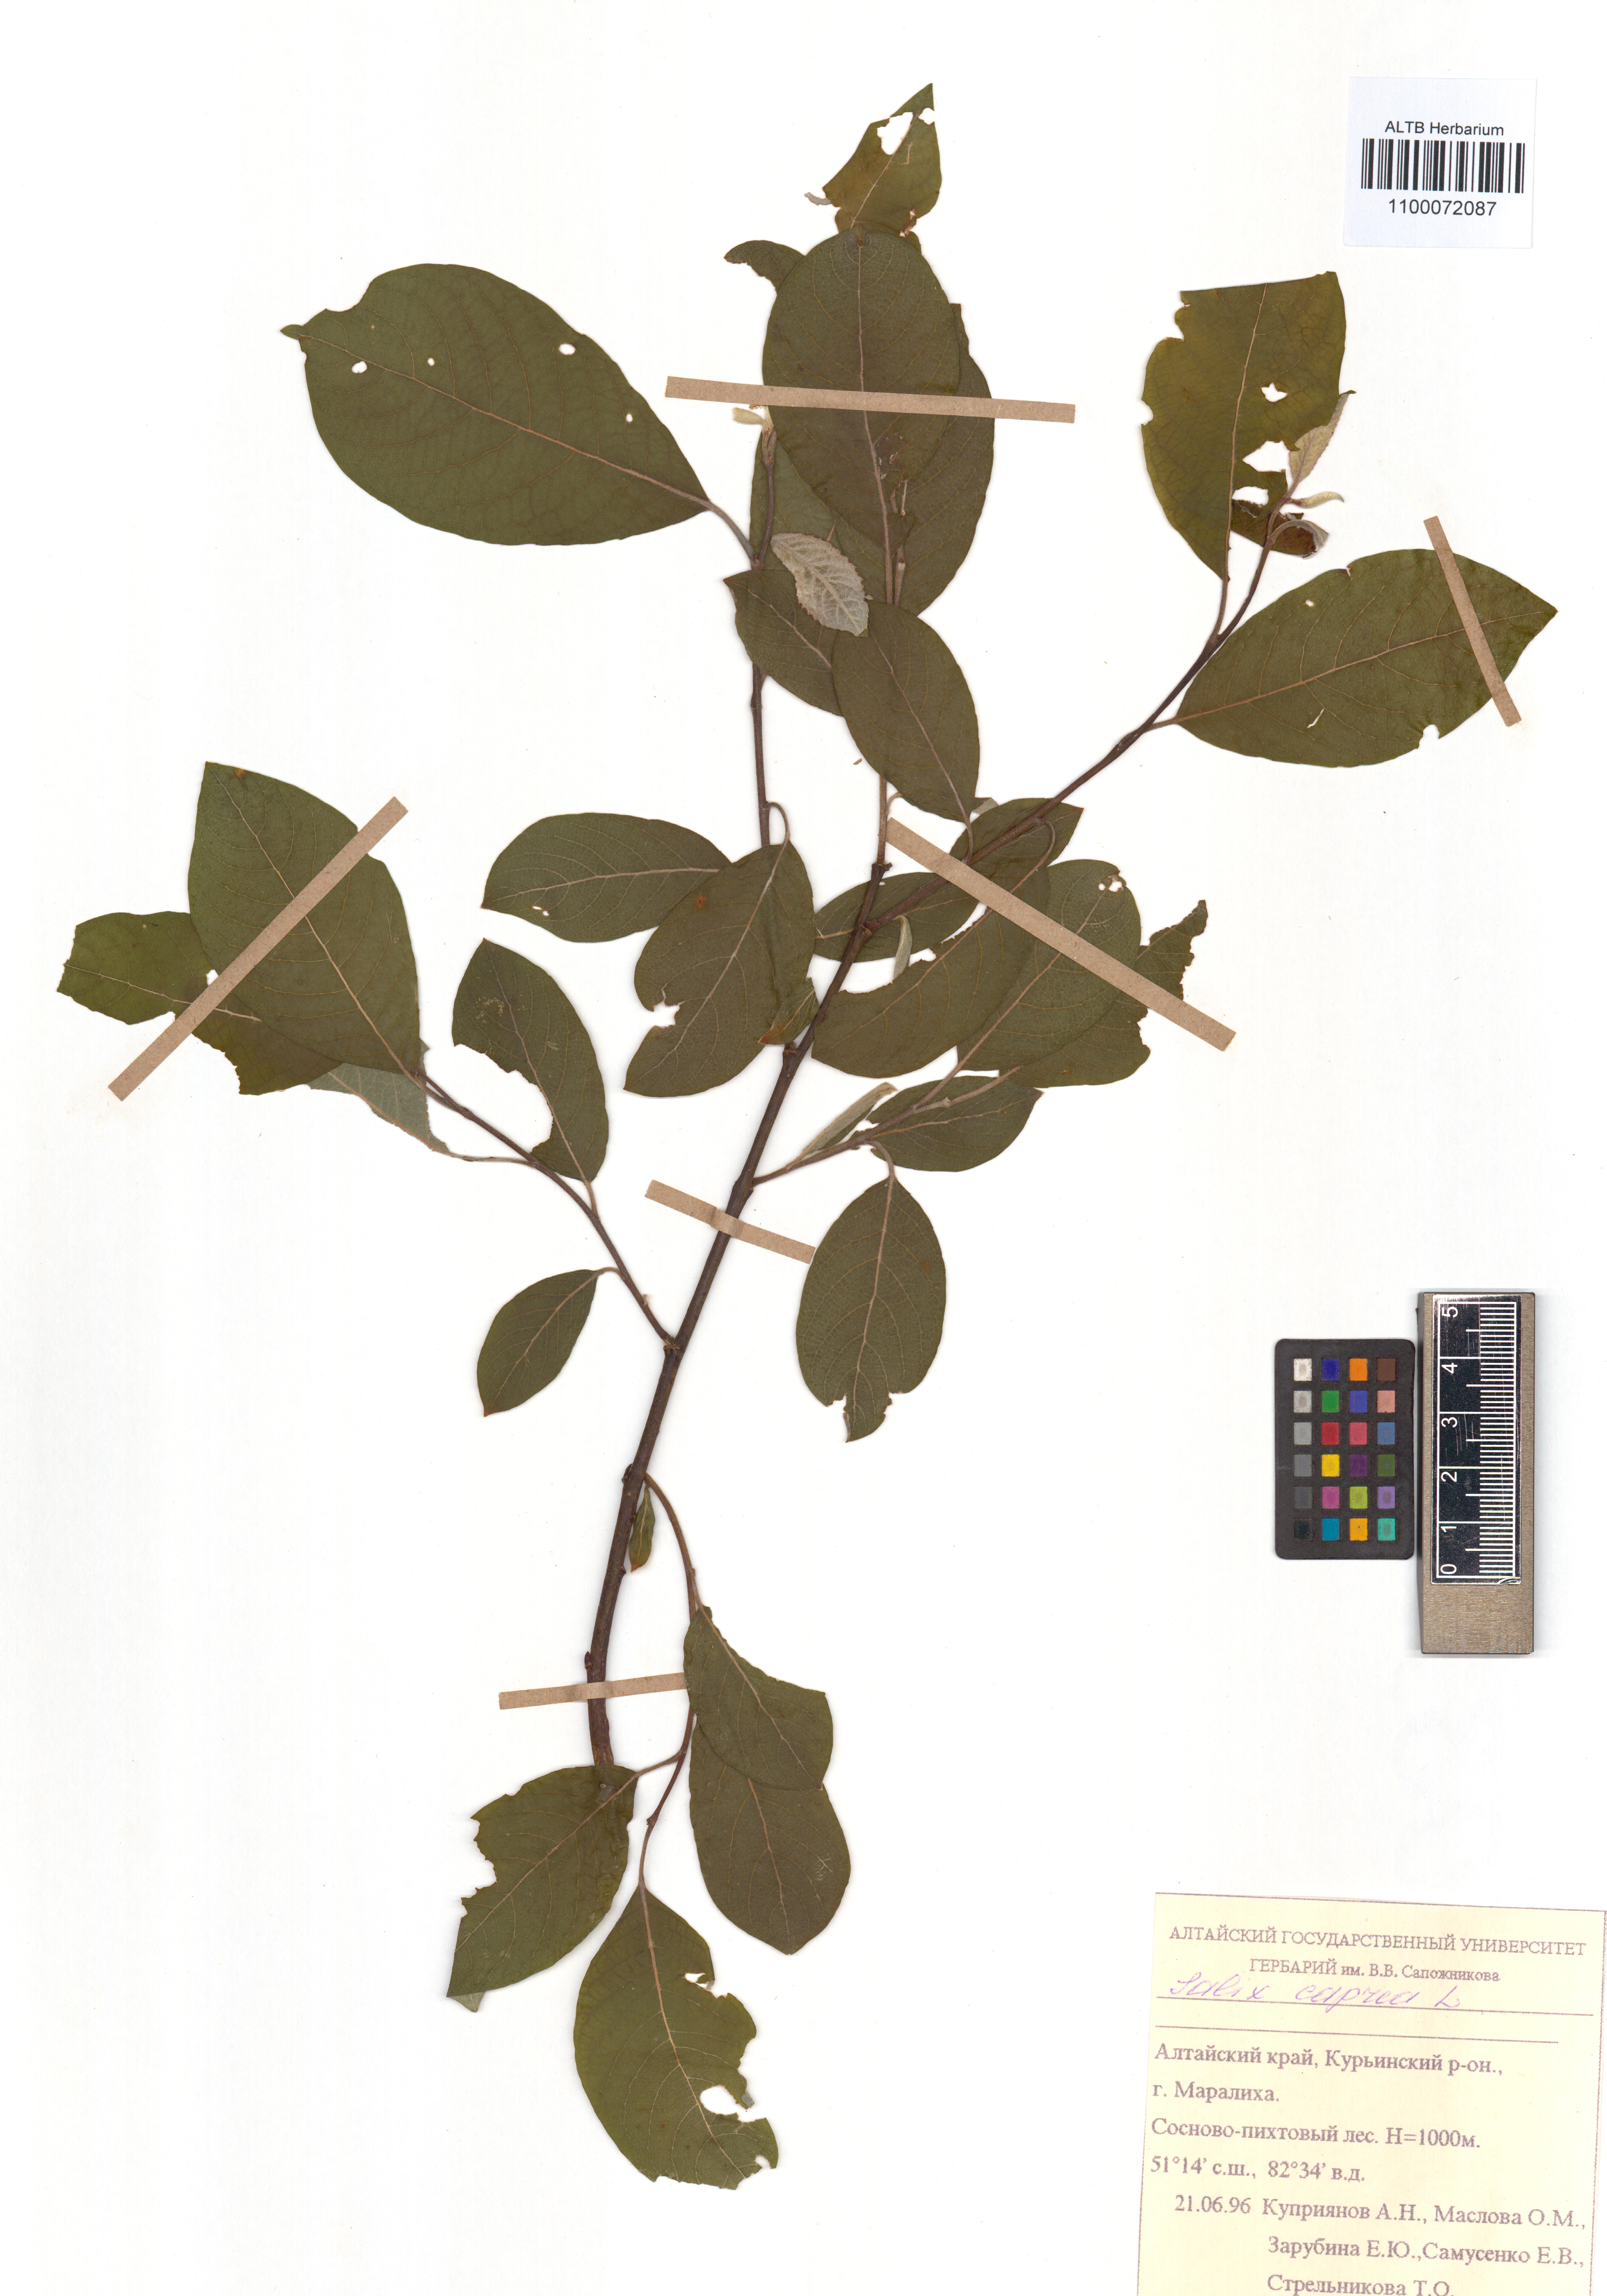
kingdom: Plantae
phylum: Tracheophyta
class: Magnoliopsida
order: Malpighiales
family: Salicaceae
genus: Salix
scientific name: Salix caprea
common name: Goat willow
